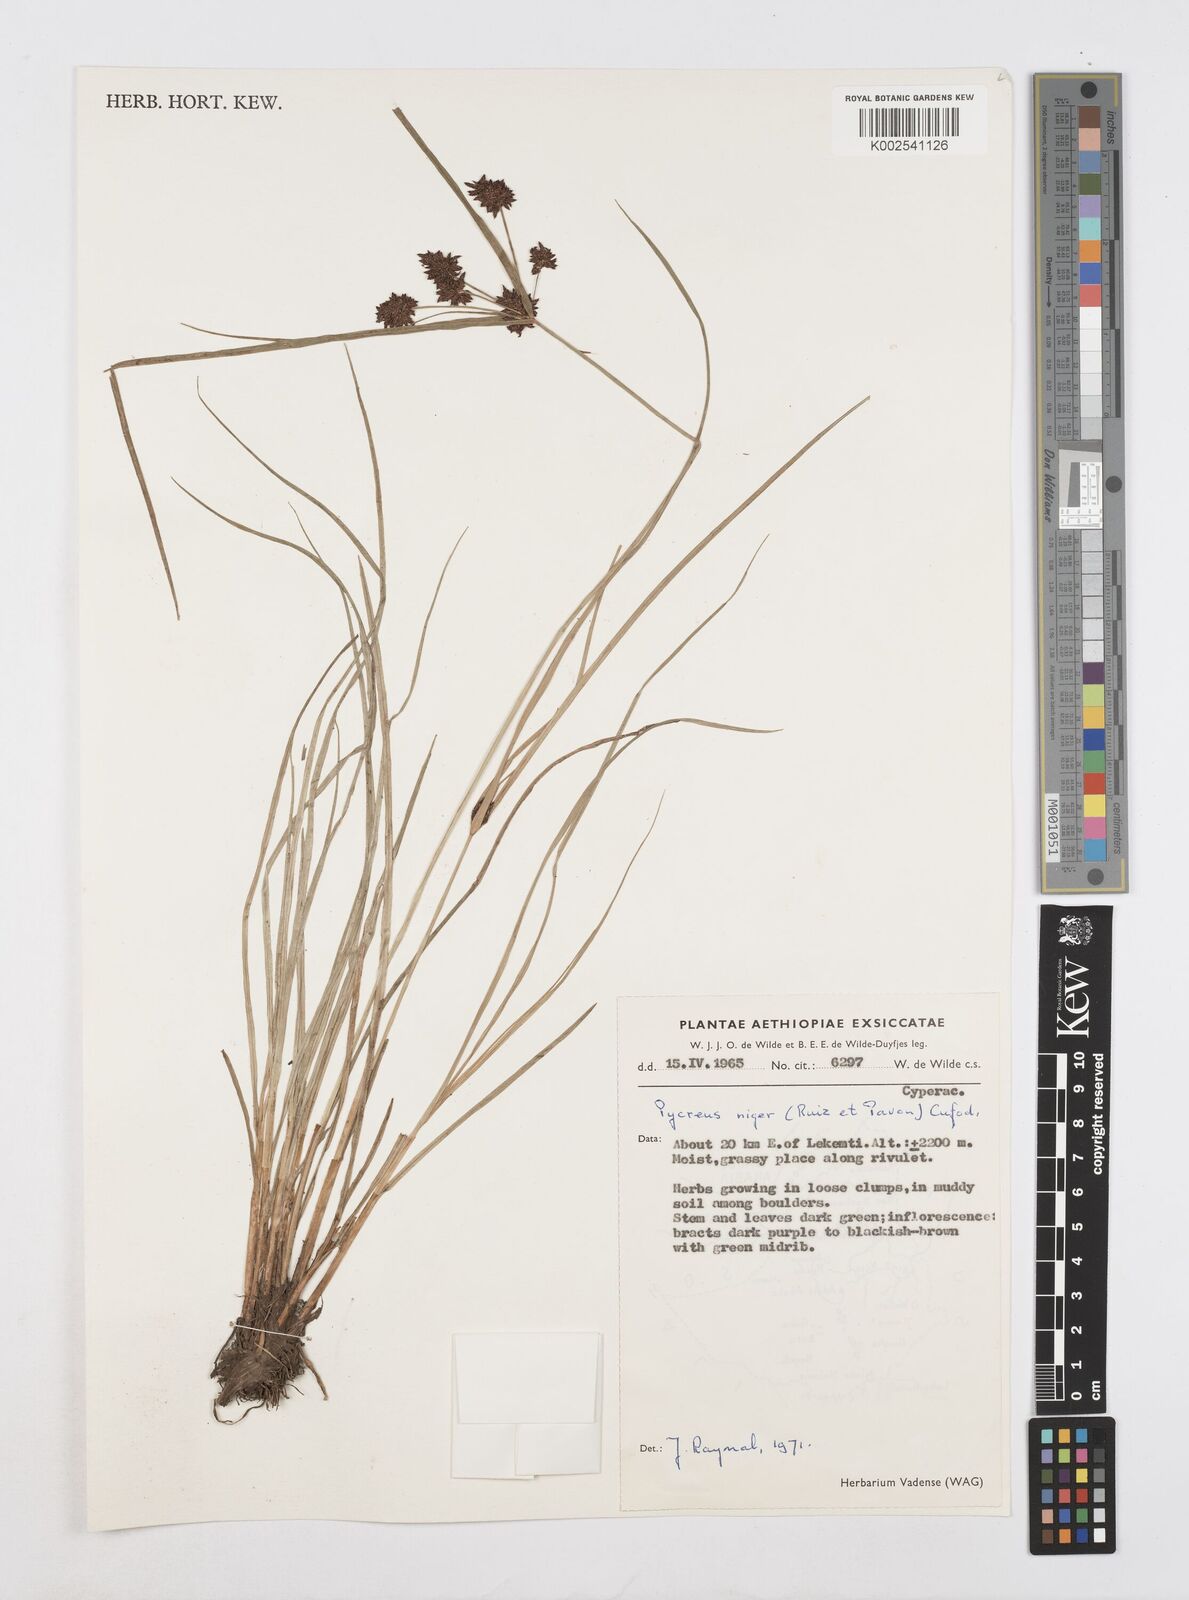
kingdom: Plantae
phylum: Tracheophyta
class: Liliopsida
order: Poales
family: Cyperaceae
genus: Cyperus
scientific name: Cyperus elegantulus
